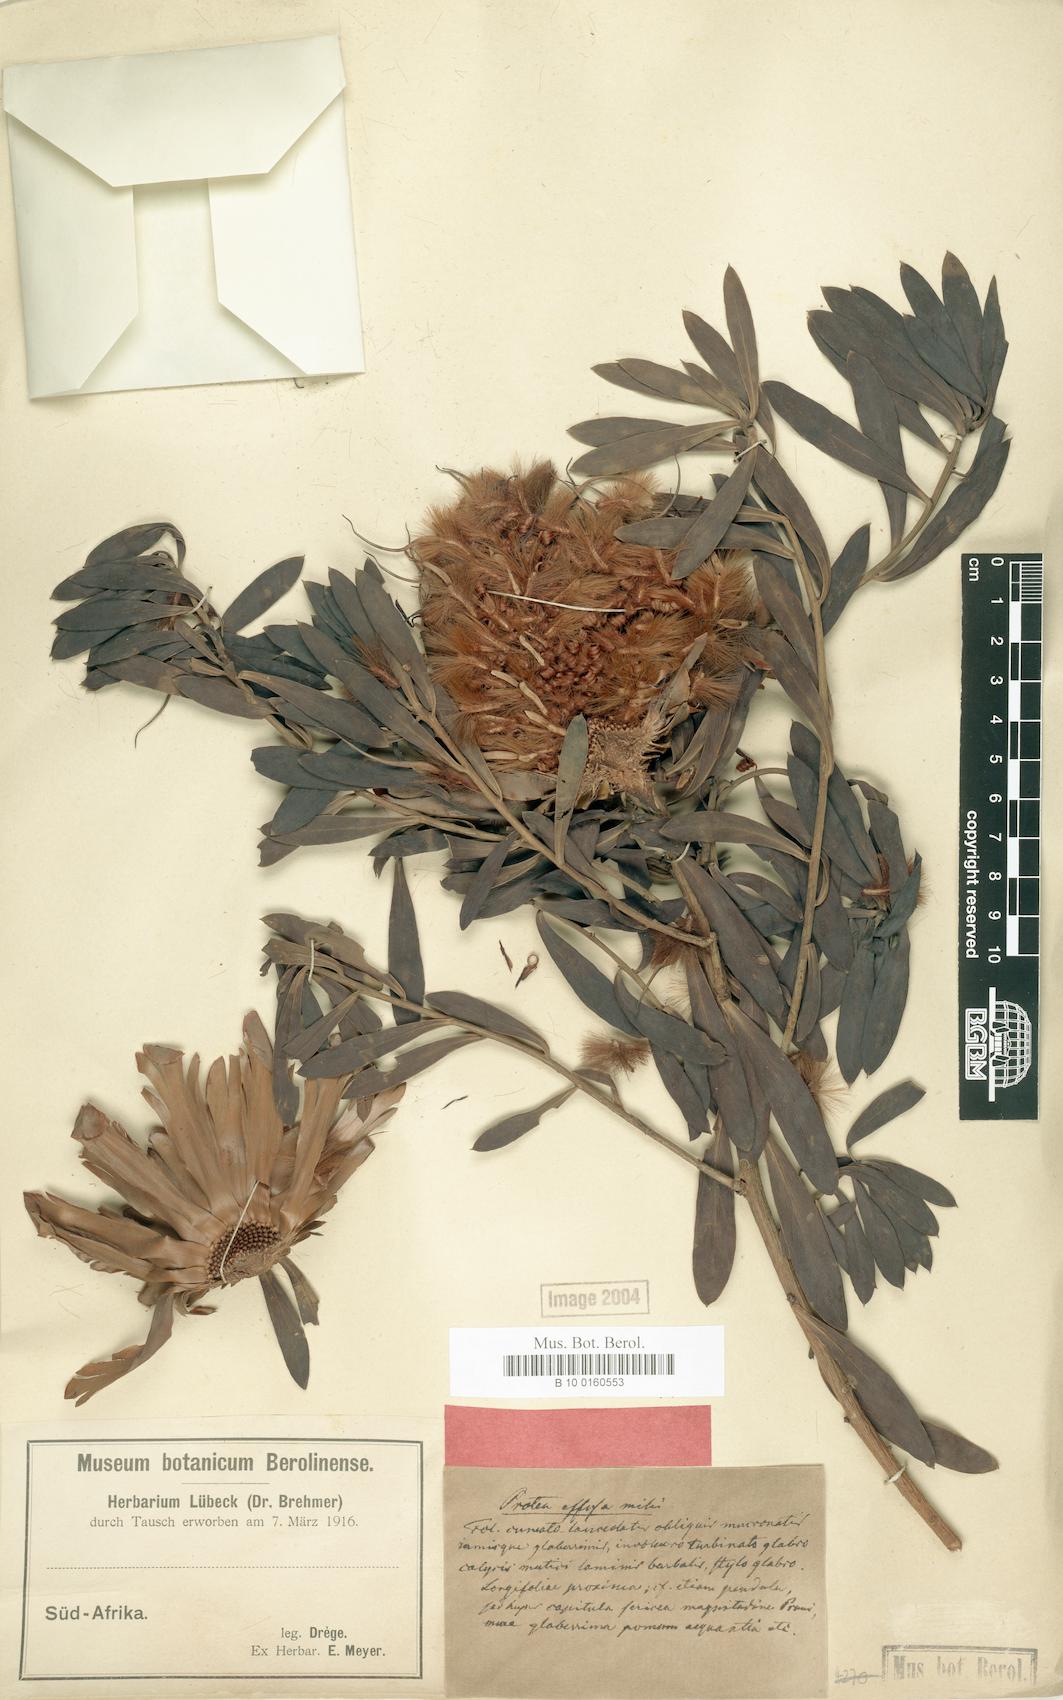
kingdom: Plantae
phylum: Tracheophyta
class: Magnoliopsida
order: Proteales
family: Proteaceae
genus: Protea
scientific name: Protea effusa
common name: Scarlet sugarbush
